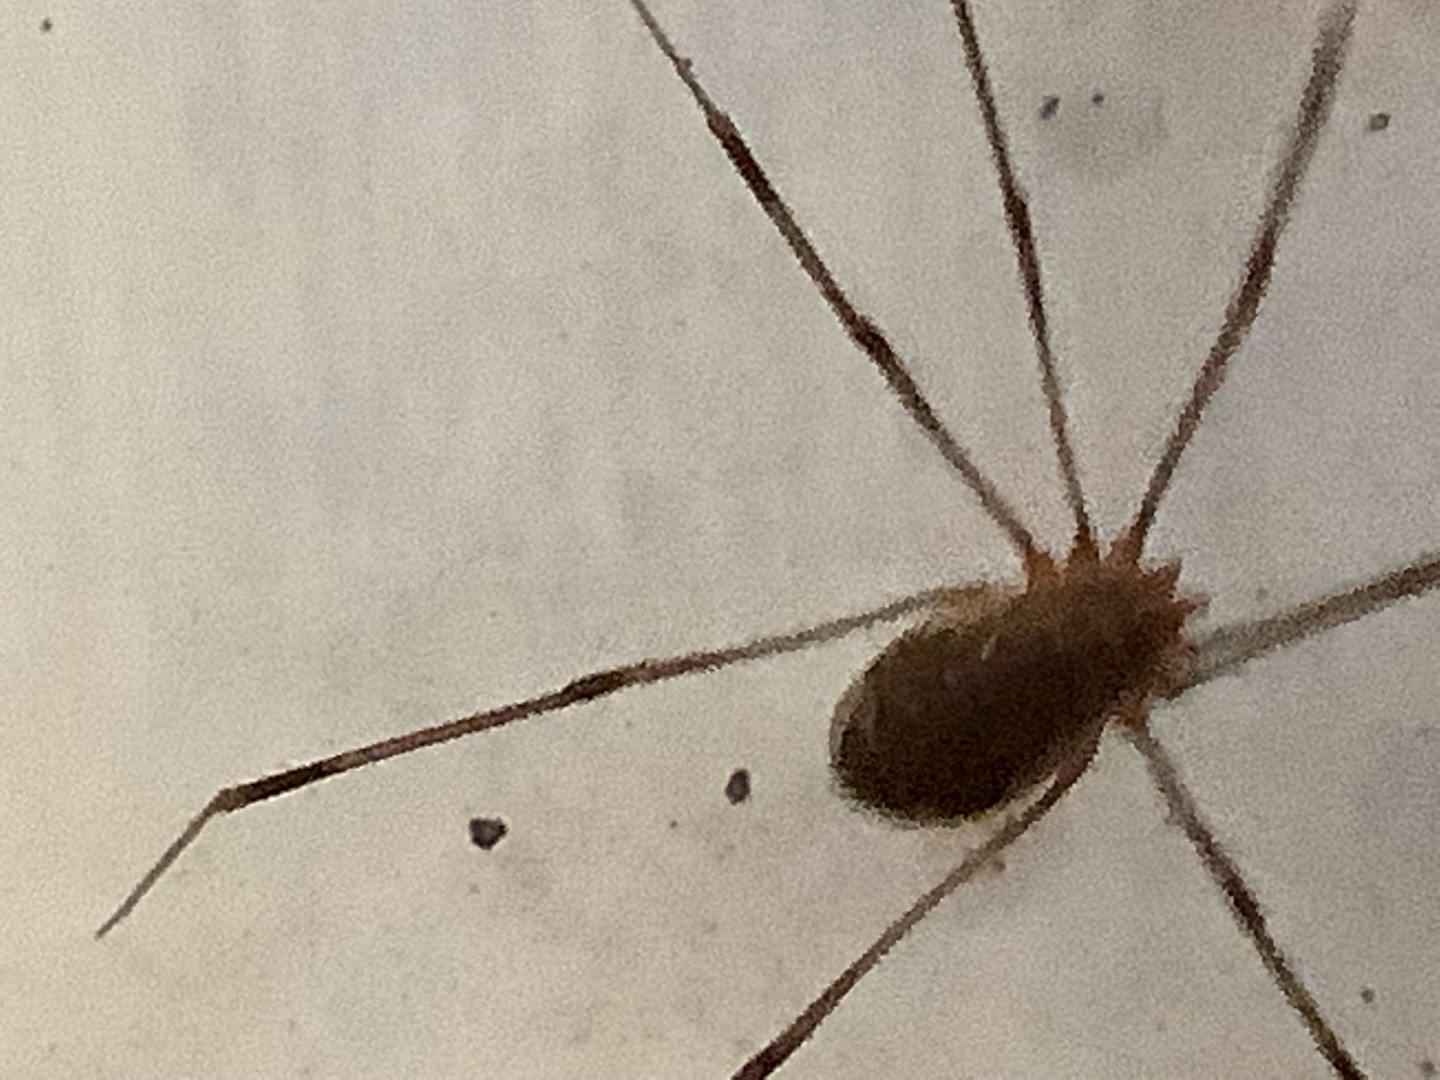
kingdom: Animalia
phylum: Arthropoda
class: Arachnida
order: Opiliones
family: Phalangiidae
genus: Opilio
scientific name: Opilio canestrinii
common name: Orange vægmejer
